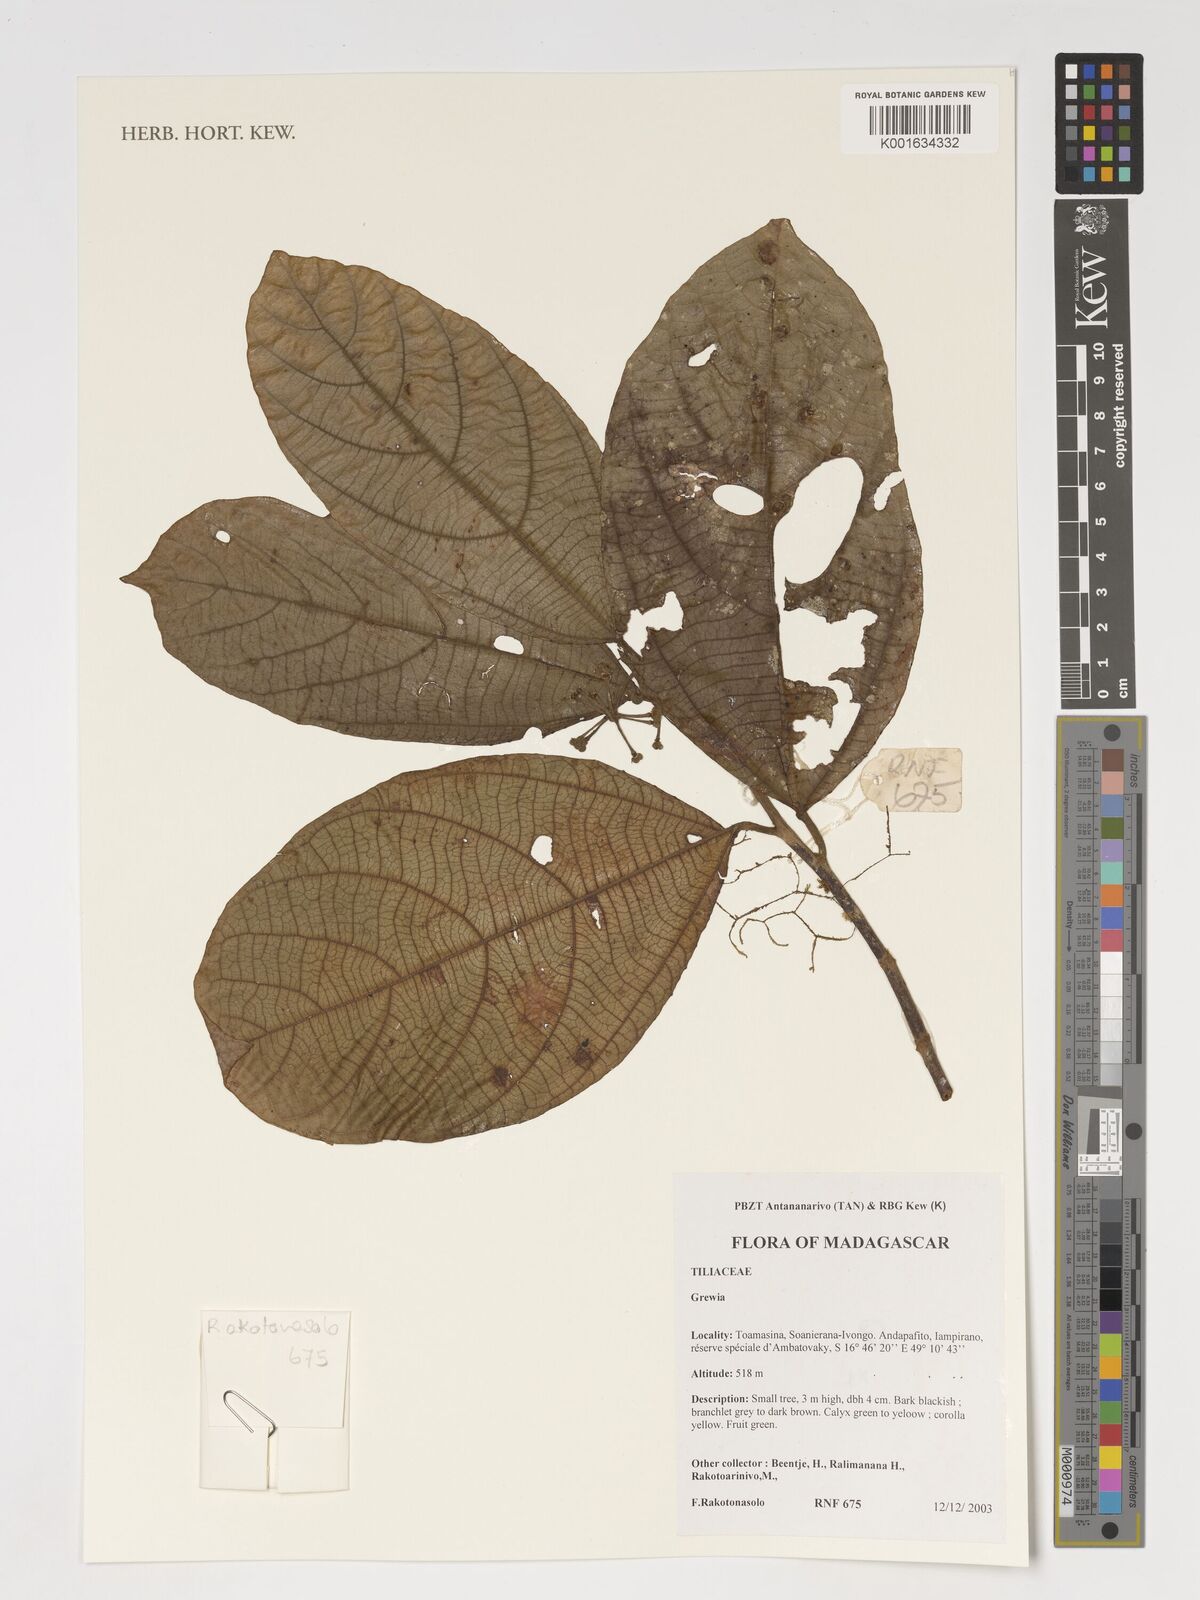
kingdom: Plantae
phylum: Tracheophyta
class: Magnoliopsida
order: Malvales
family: Malvaceae
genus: Grewia
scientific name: Grewia
